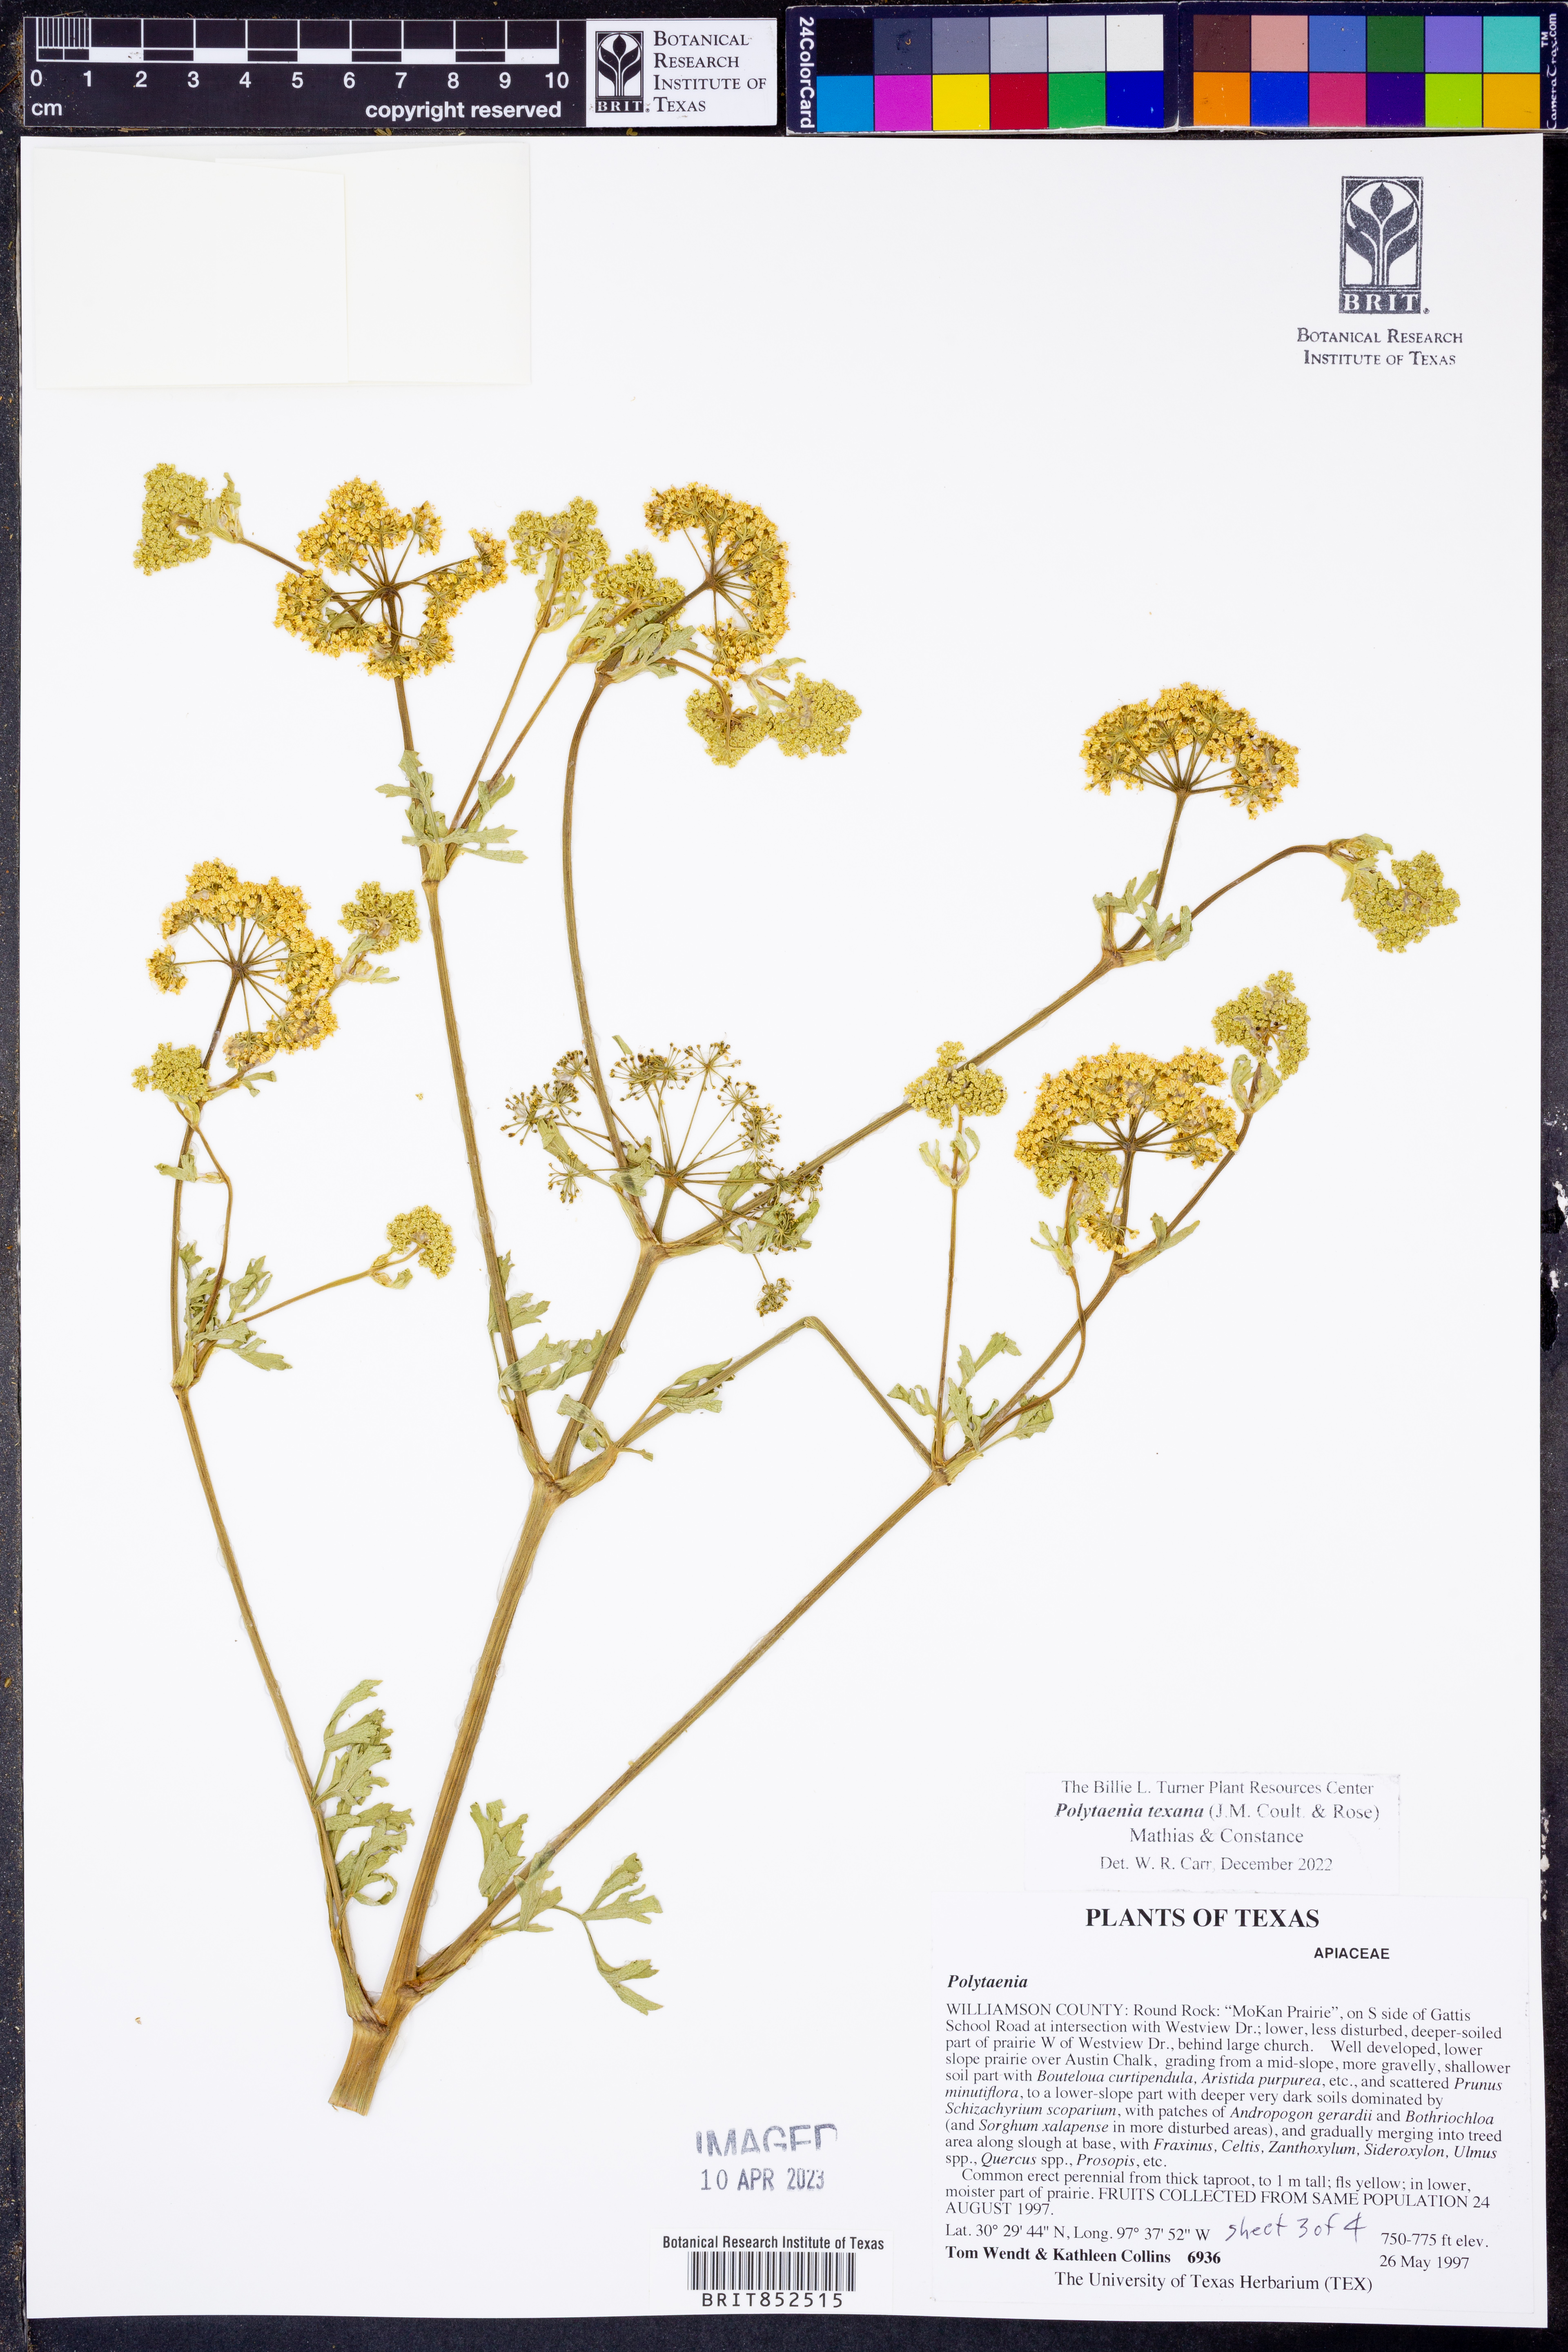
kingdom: Plantae
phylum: Tracheophyta
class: Magnoliopsida
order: Apiales
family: Apiaceae
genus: Polytaenia
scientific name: Polytaenia texana
